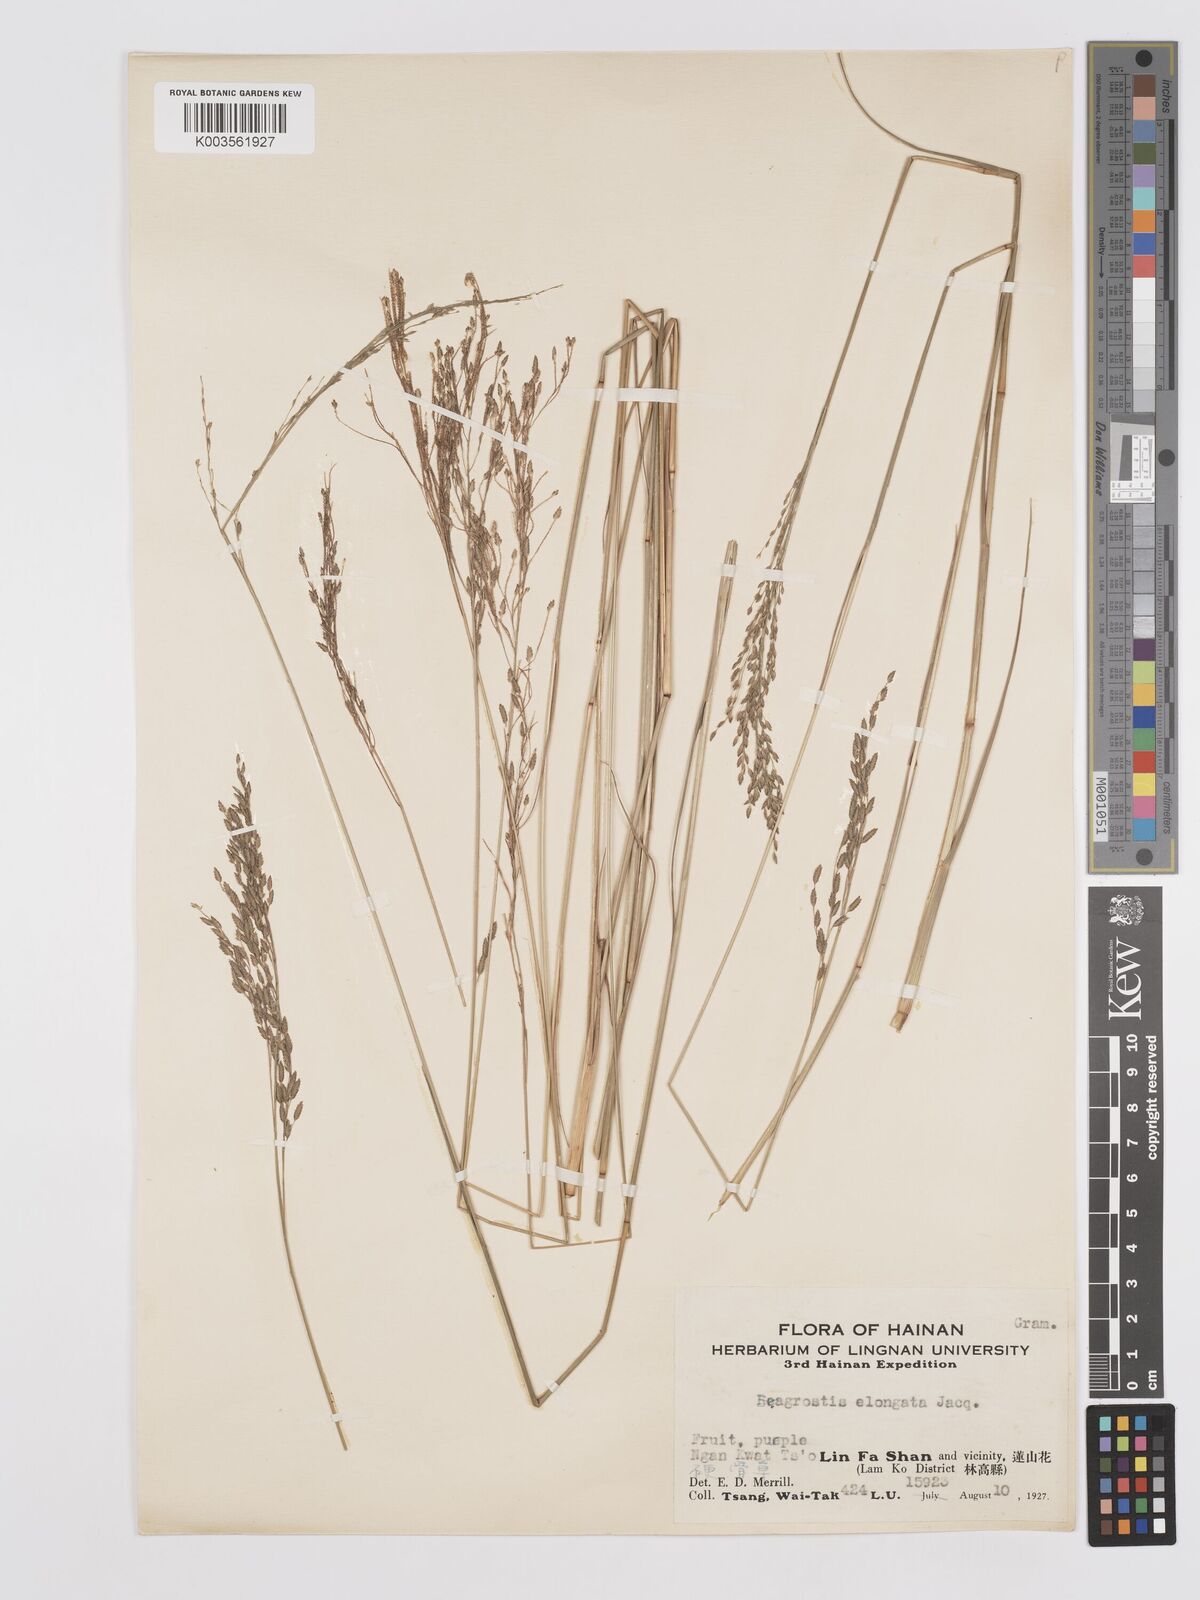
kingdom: Plantae
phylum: Tracheophyta
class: Liliopsida
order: Poales
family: Poaceae
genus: Eragrostis
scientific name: Eragrostis atrovirens
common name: Thalia lovegrass
